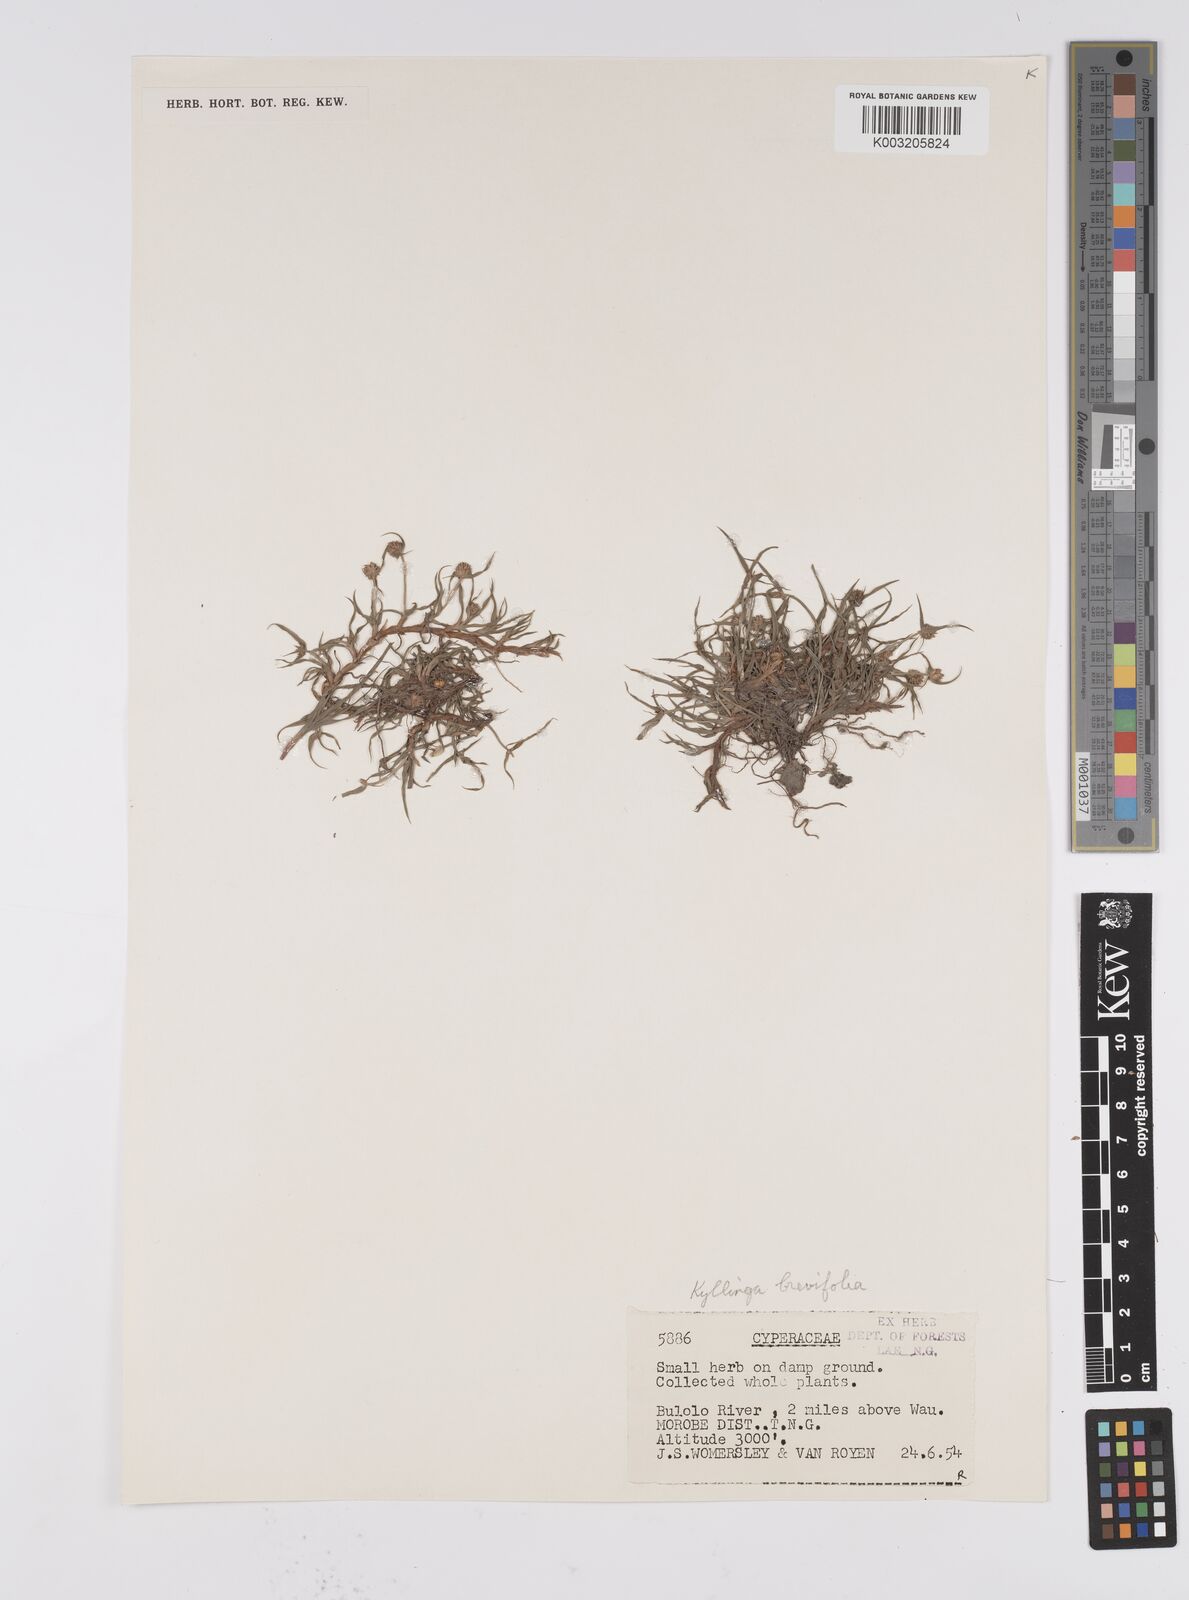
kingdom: Plantae
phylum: Tracheophyta
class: Liliopsida
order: Poales
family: Cyperaceae
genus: Cyperus
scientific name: Cyperus brevifolius
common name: Globe kyllinga
